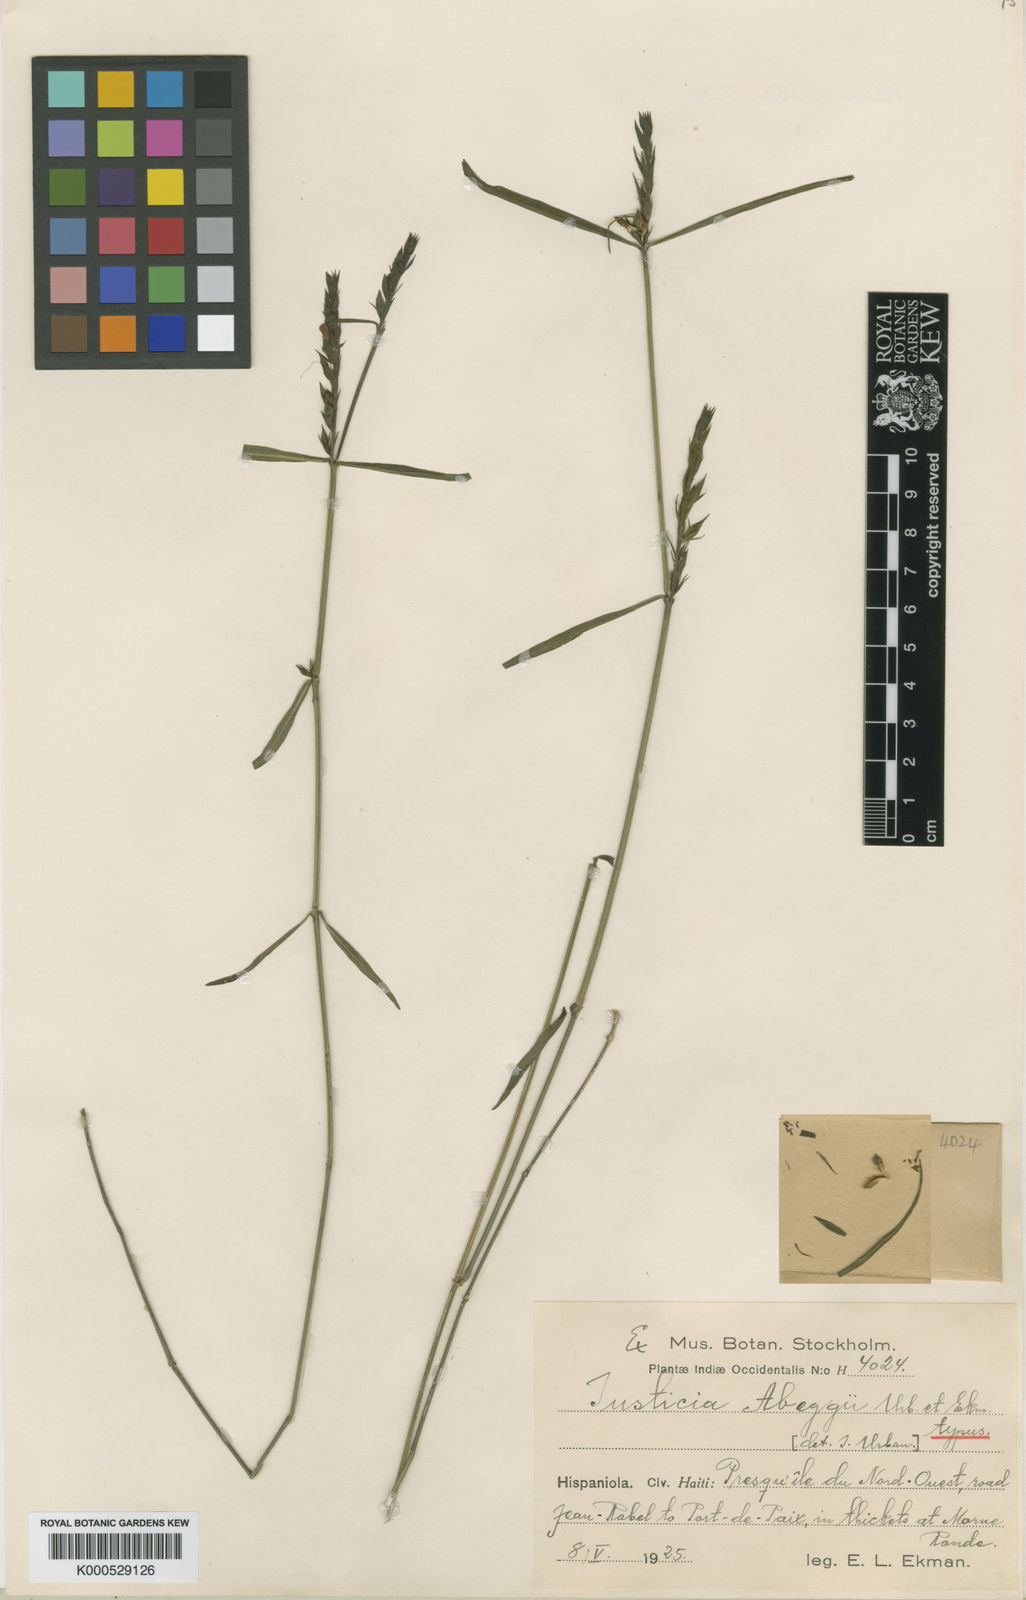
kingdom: Plantae
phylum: Tracheophyta
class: Magnoliopsida
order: Lamiales
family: Acanthaceae
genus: Justicia
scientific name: Justicia abeggii
